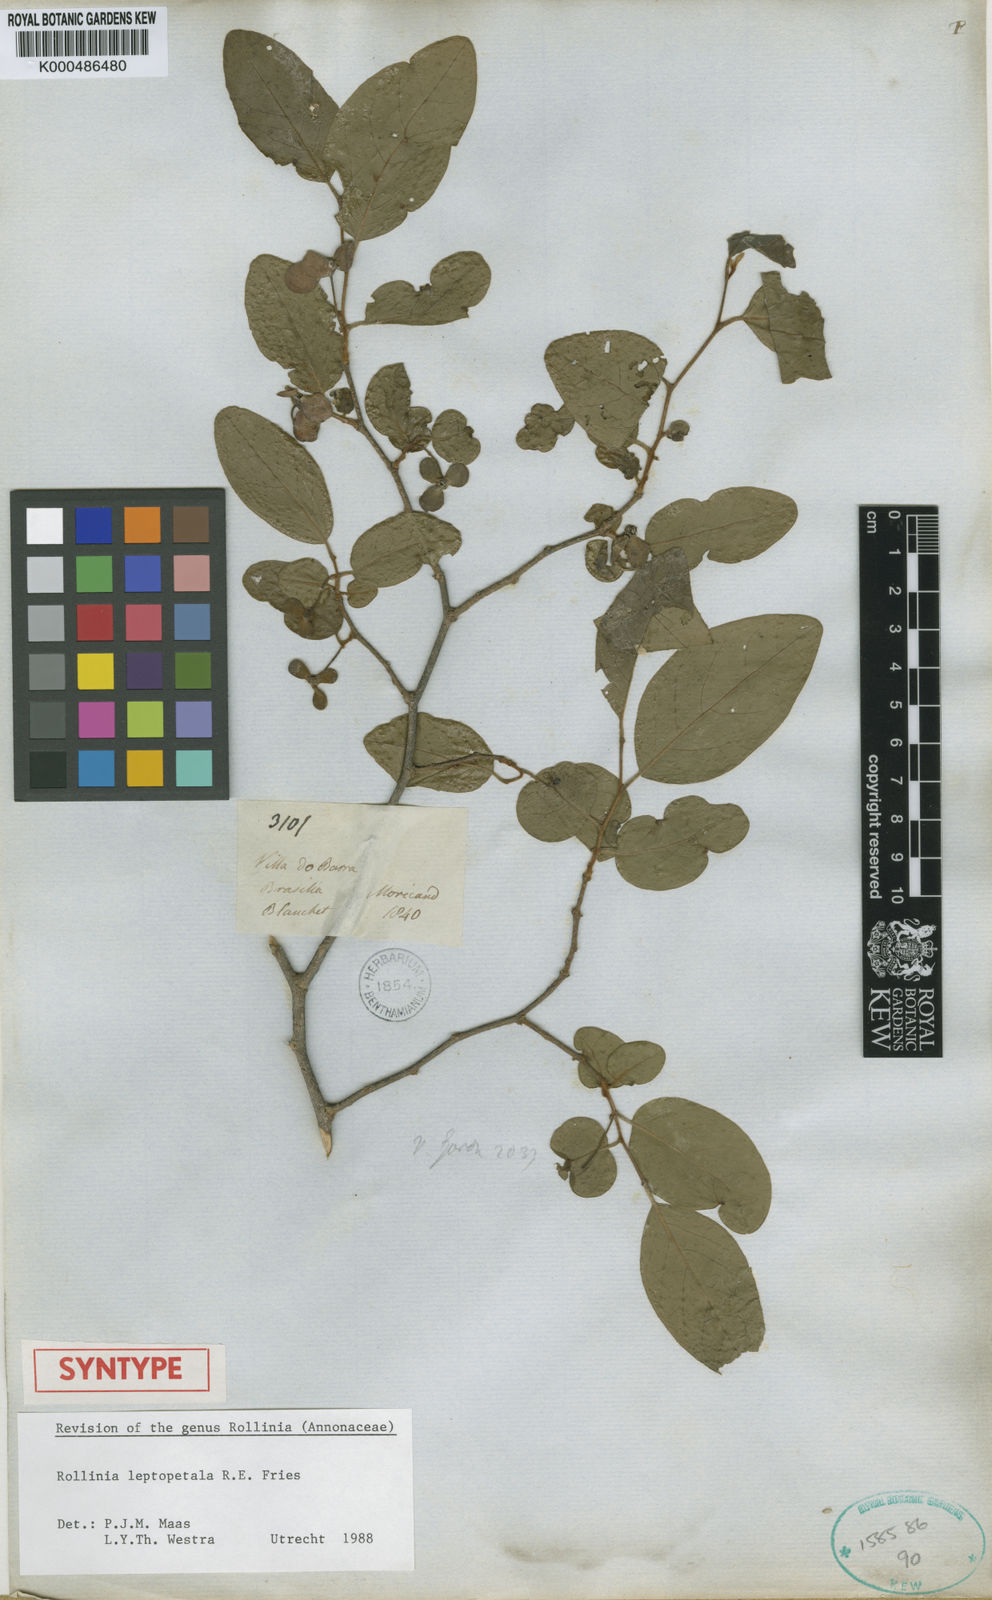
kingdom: Plantae
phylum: Tracheophyta
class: Magnoliopsida
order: Magnoliales
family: Annonaceae
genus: Annona
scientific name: Annona leptopetala
